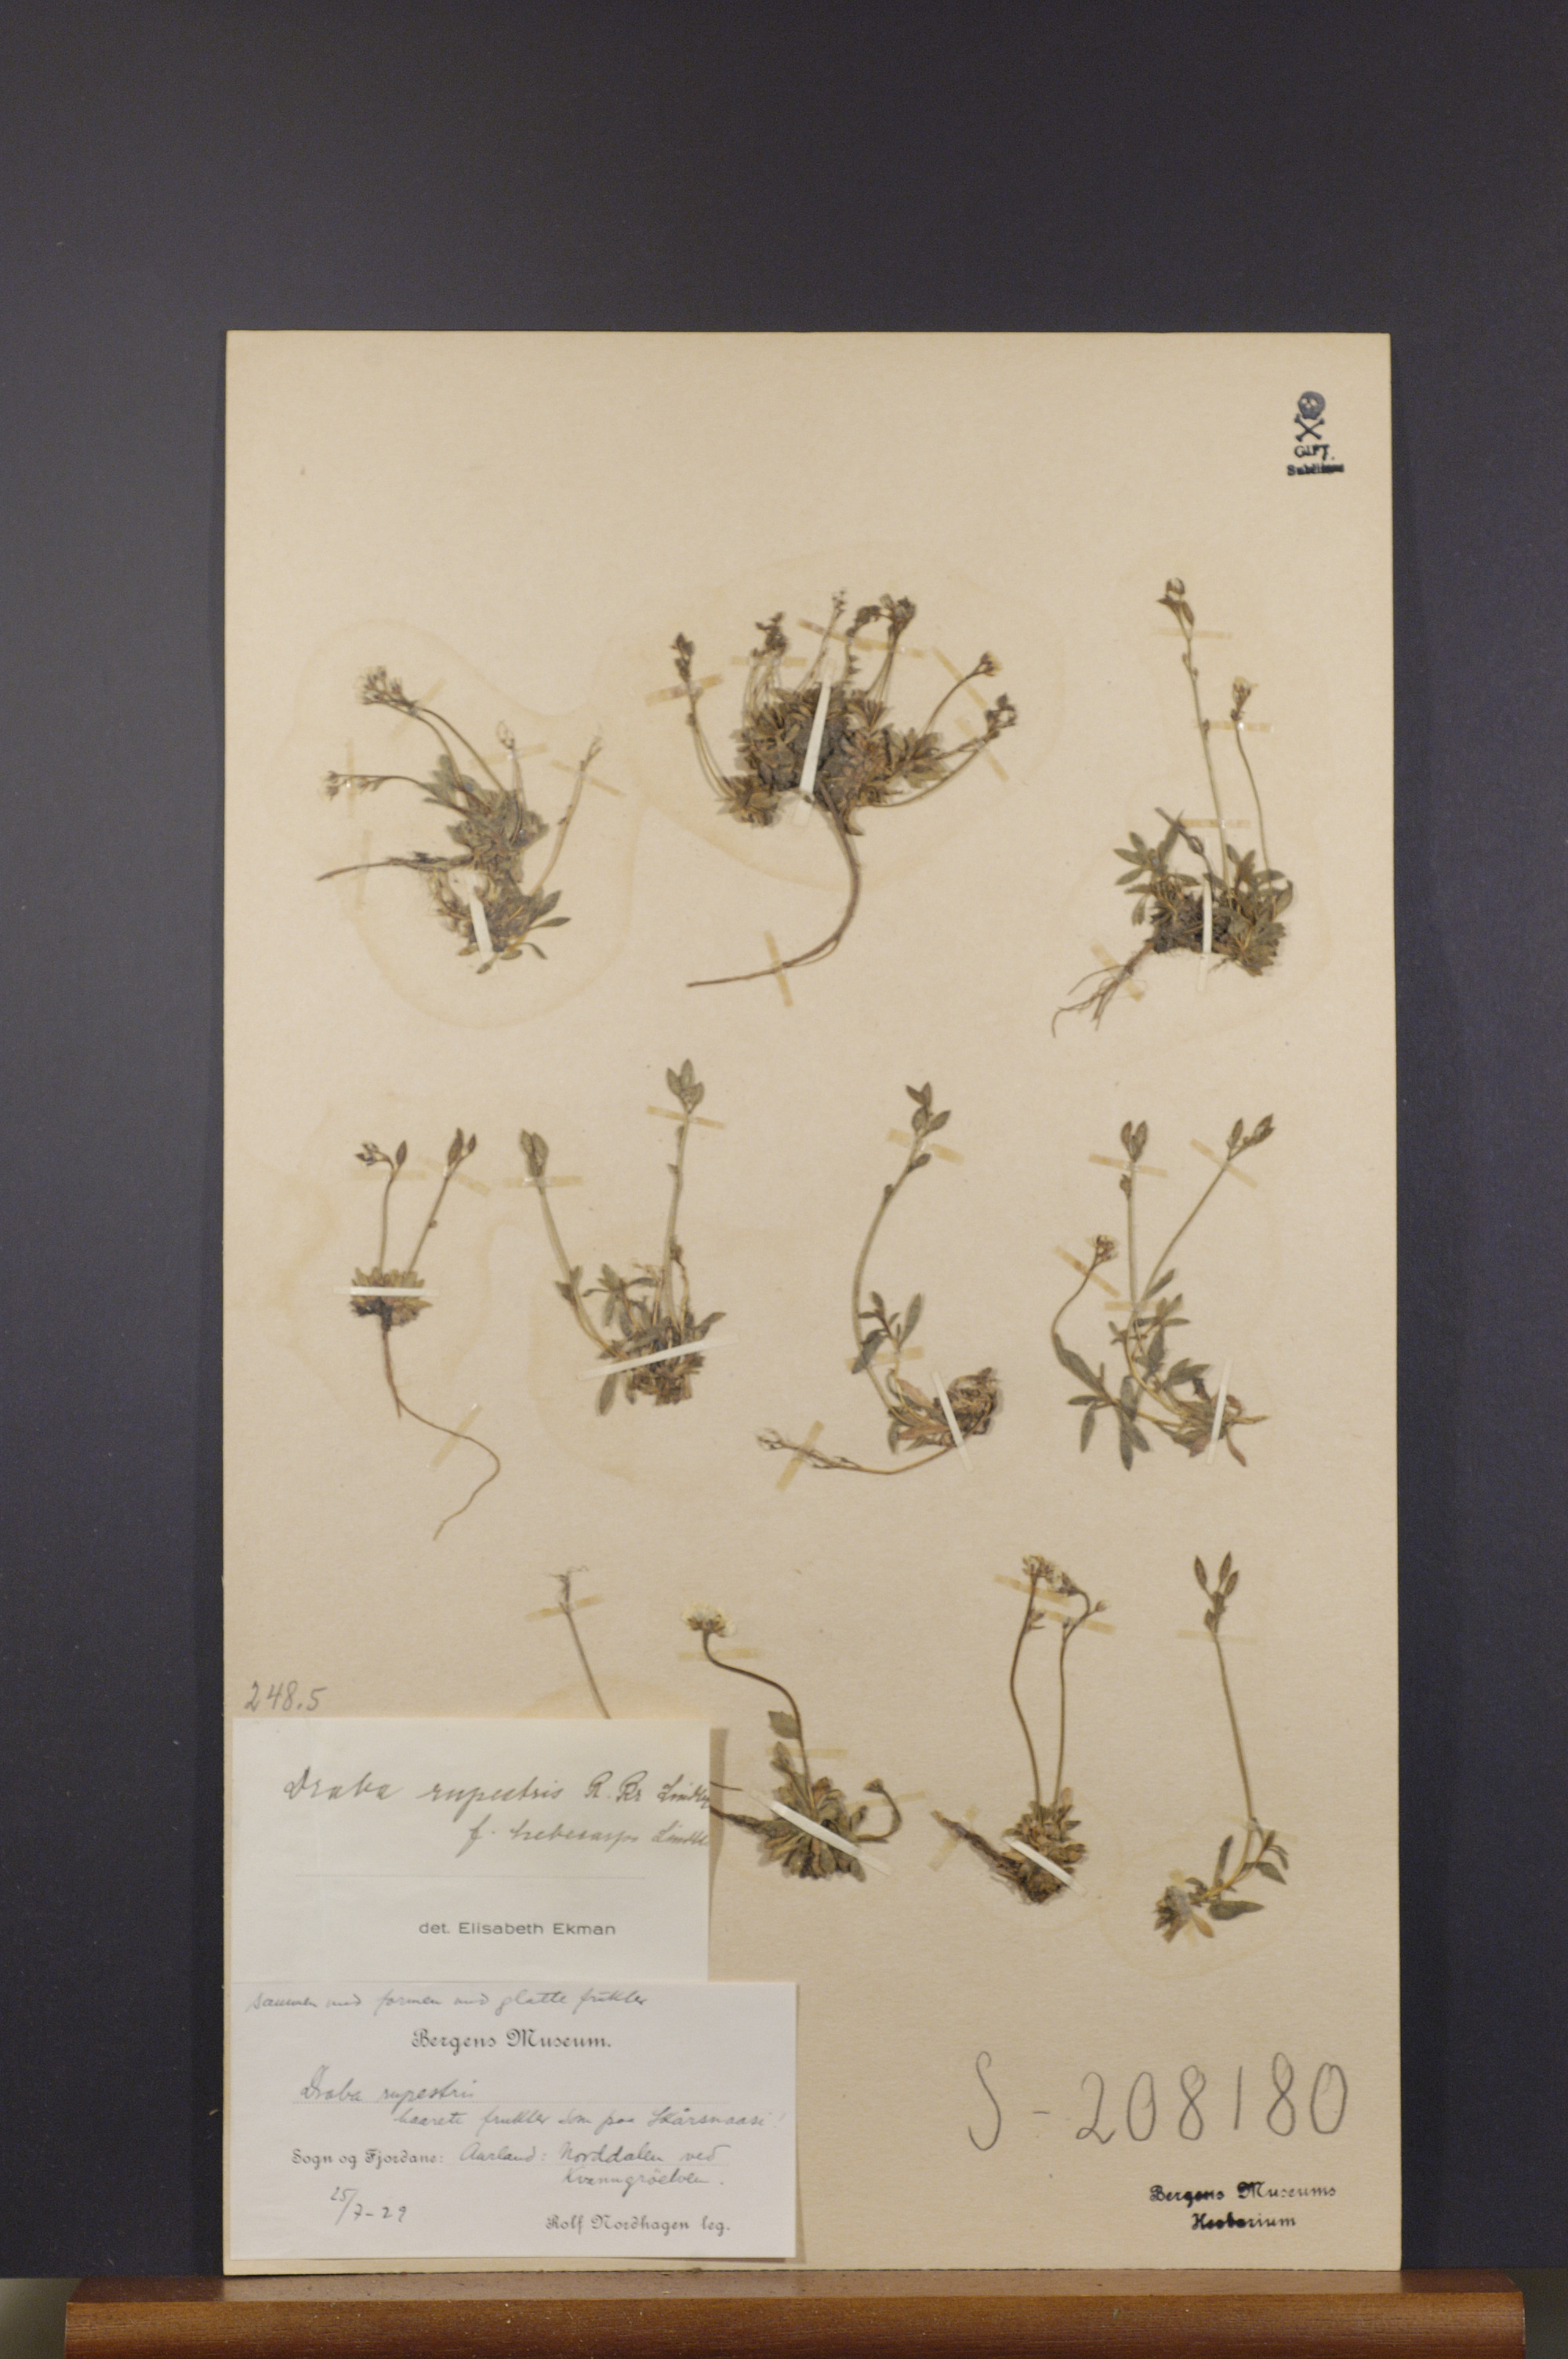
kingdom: Plantae
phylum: Tracheophyta
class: Magnoliopsida
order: Brassicales
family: Brassicaceae
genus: Draba
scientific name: Draba norvegica
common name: Rock whitlowgrass
